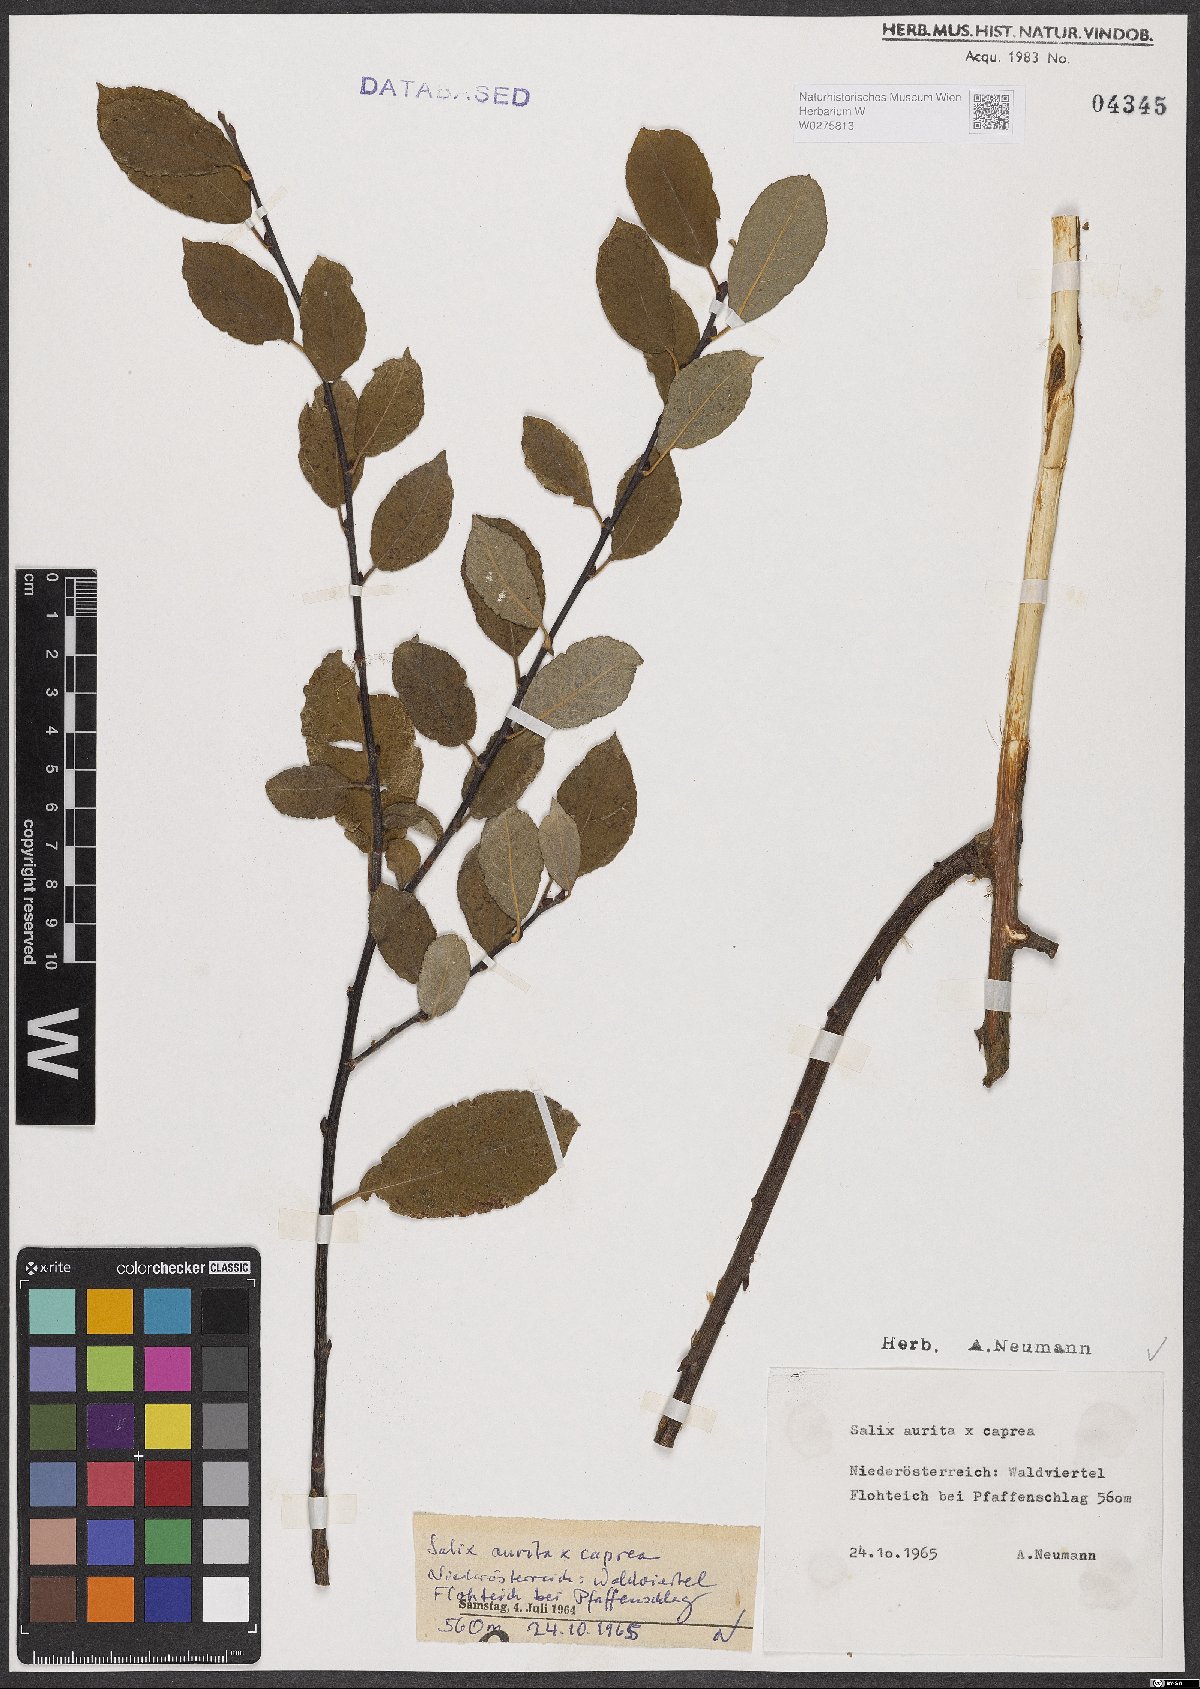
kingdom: Plantae
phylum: Tracheophyta
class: Magnoliopsida
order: Malpighiales
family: Salicaceae
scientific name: Salicaceae
